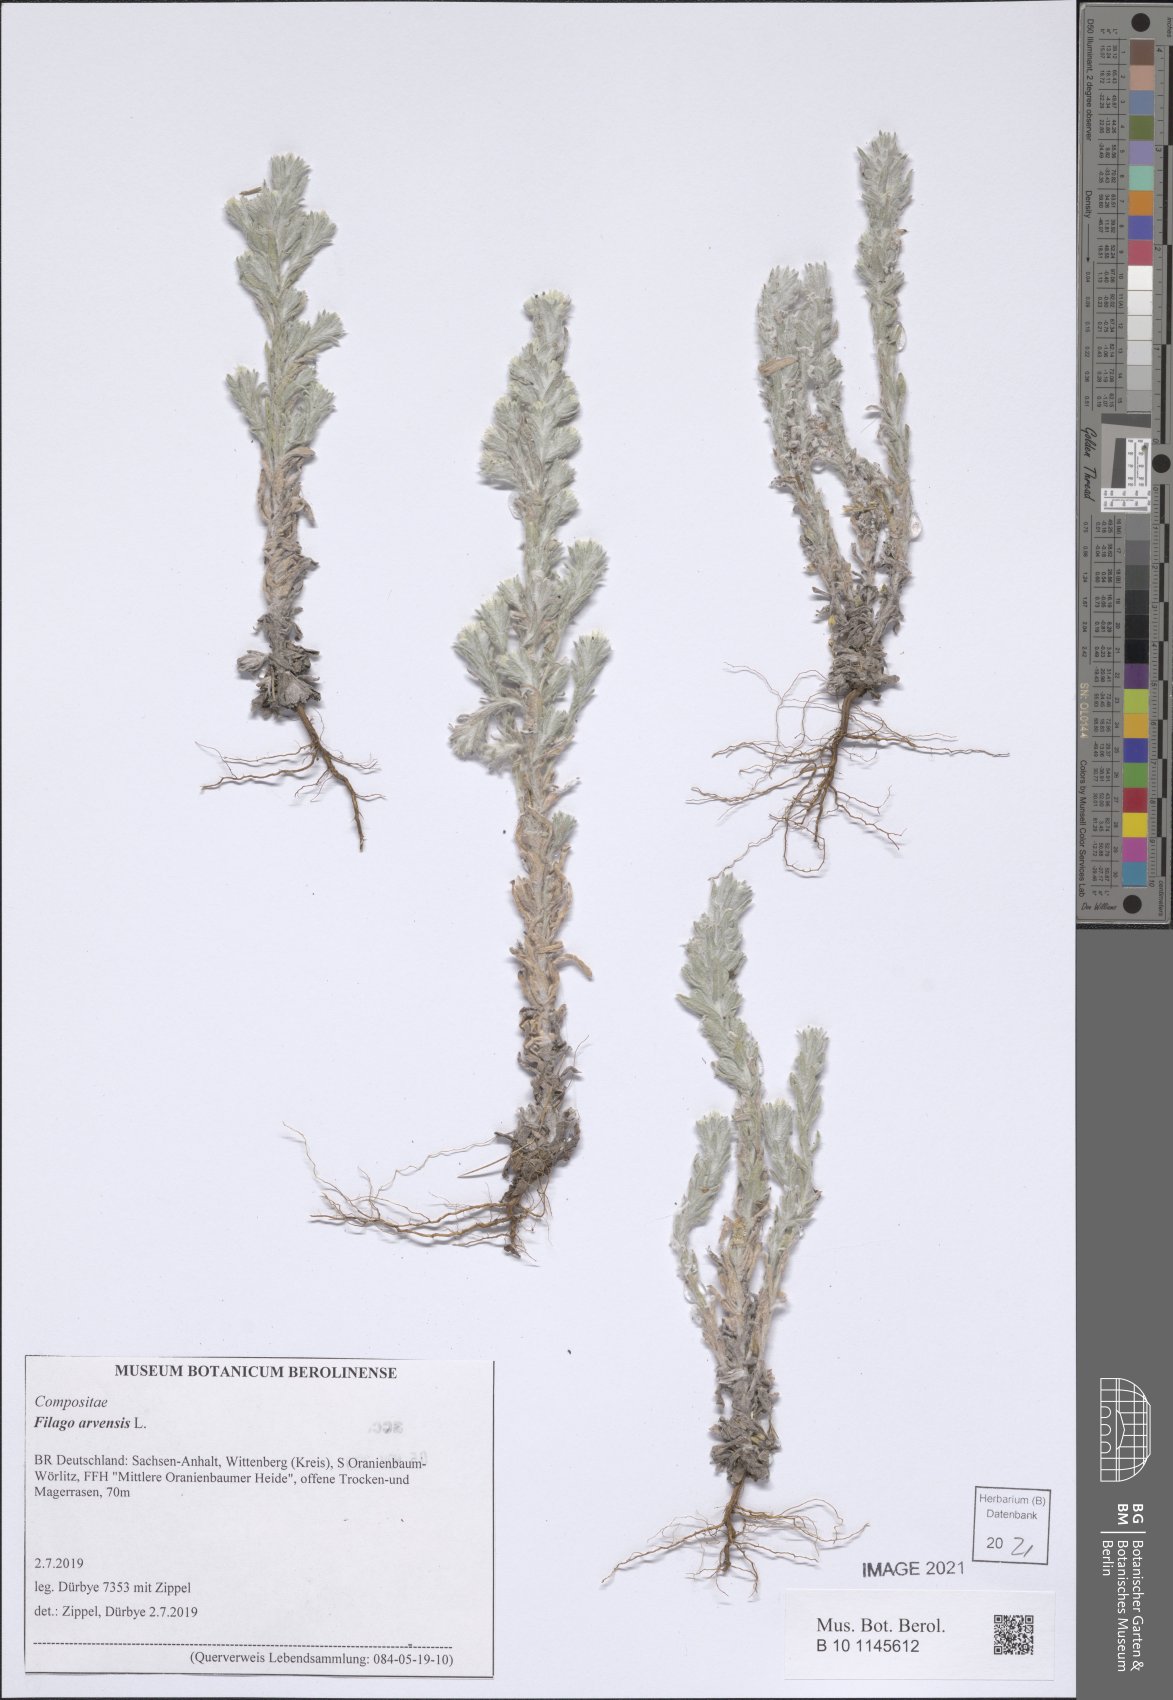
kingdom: Plantae
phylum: Tracheophyta
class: Magnoliopsida
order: Asterales
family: Asteraceae
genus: Filago
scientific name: Filago arvensis
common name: Field cudweed
